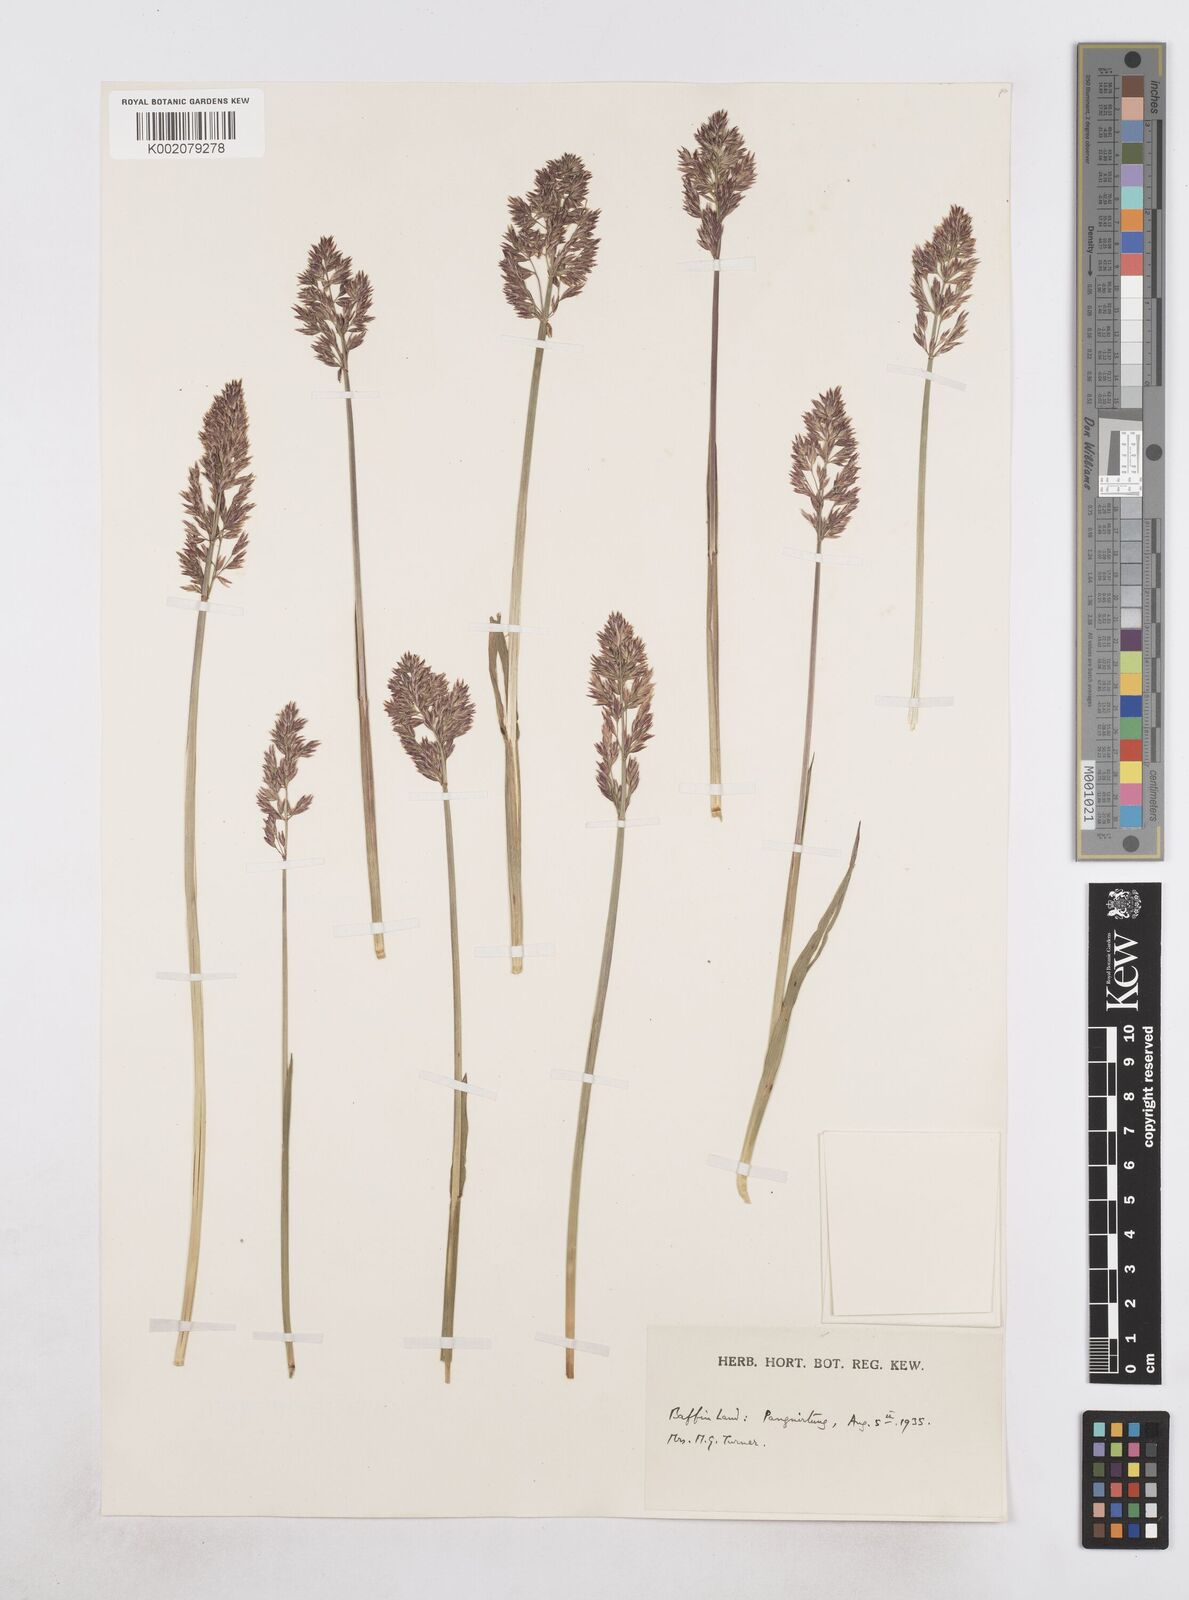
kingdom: Plantae
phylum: Tracheophyta
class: Liliopsida
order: Poales
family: Poaceae
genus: Arctagrostis
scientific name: Arctagrostis latifolia
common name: Arctic grass
